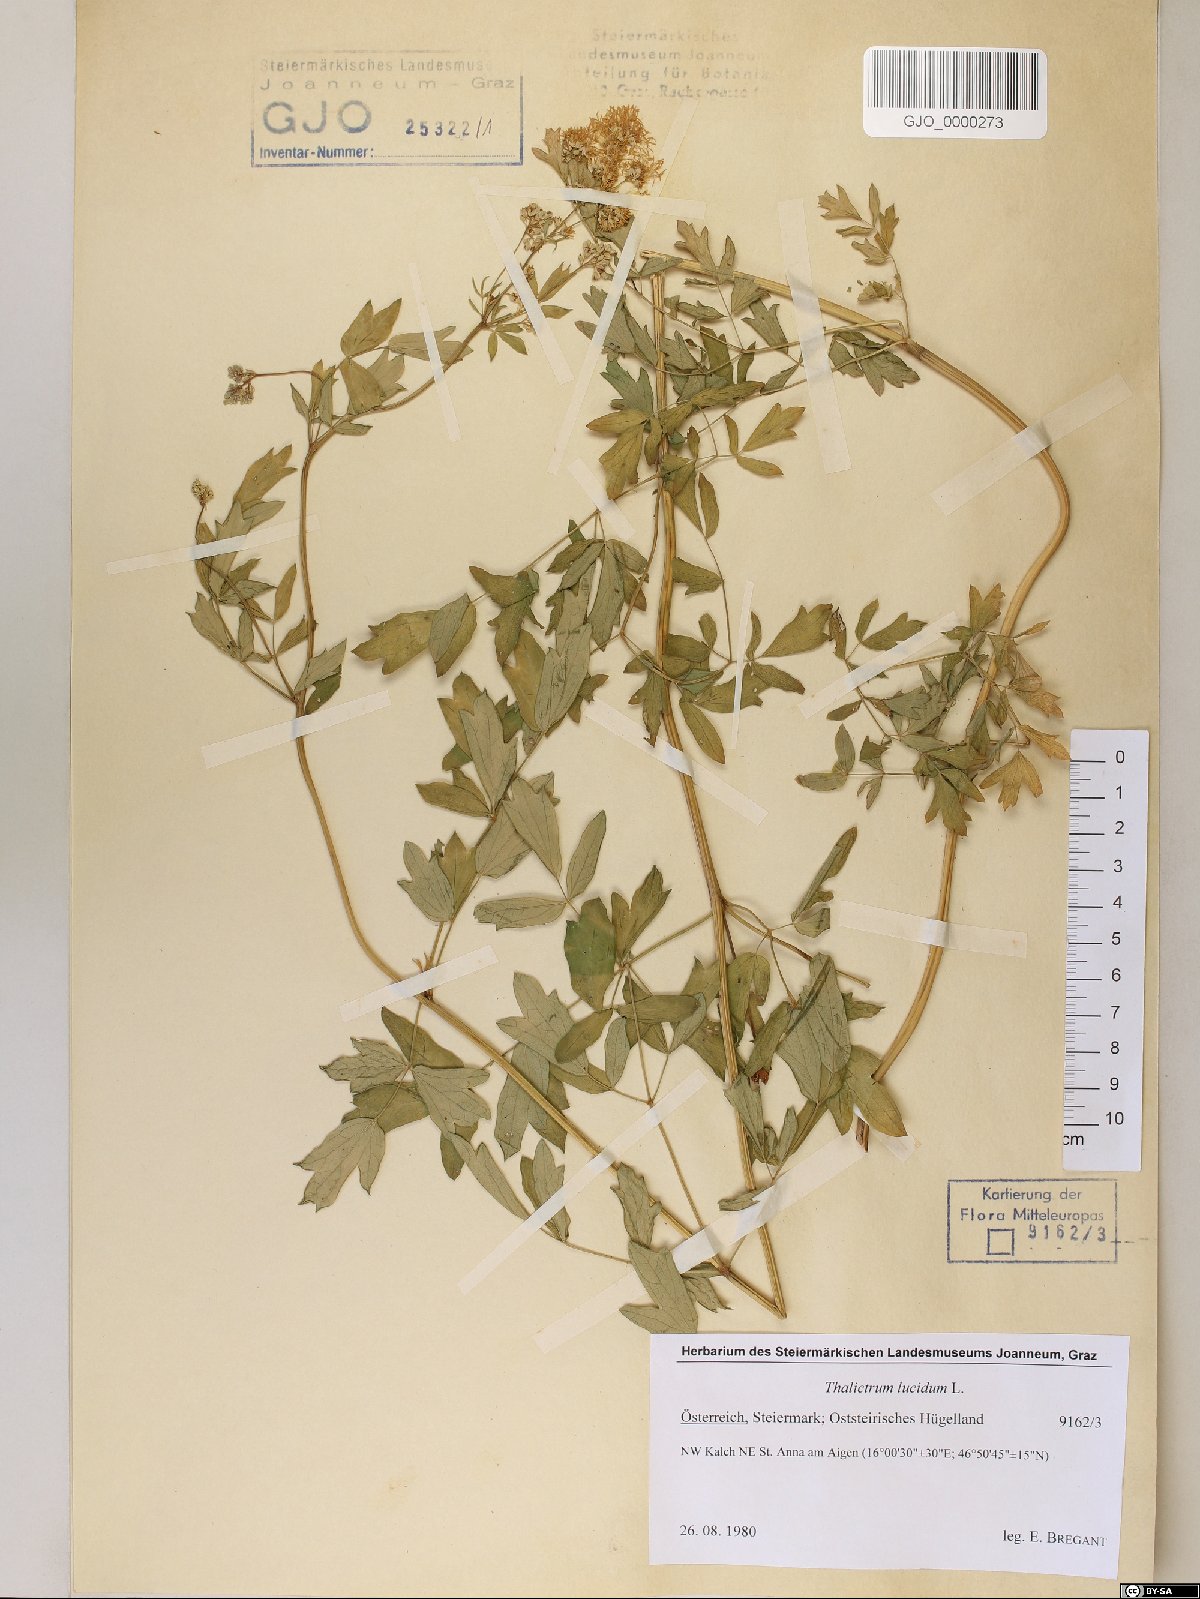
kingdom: Plantae
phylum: Tracheophyta
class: Magnoliopsida
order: Ranunculales
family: Ranunculaceae
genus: Thalictrum
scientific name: Thalictrum lucidum
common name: Shining meadow-rue
